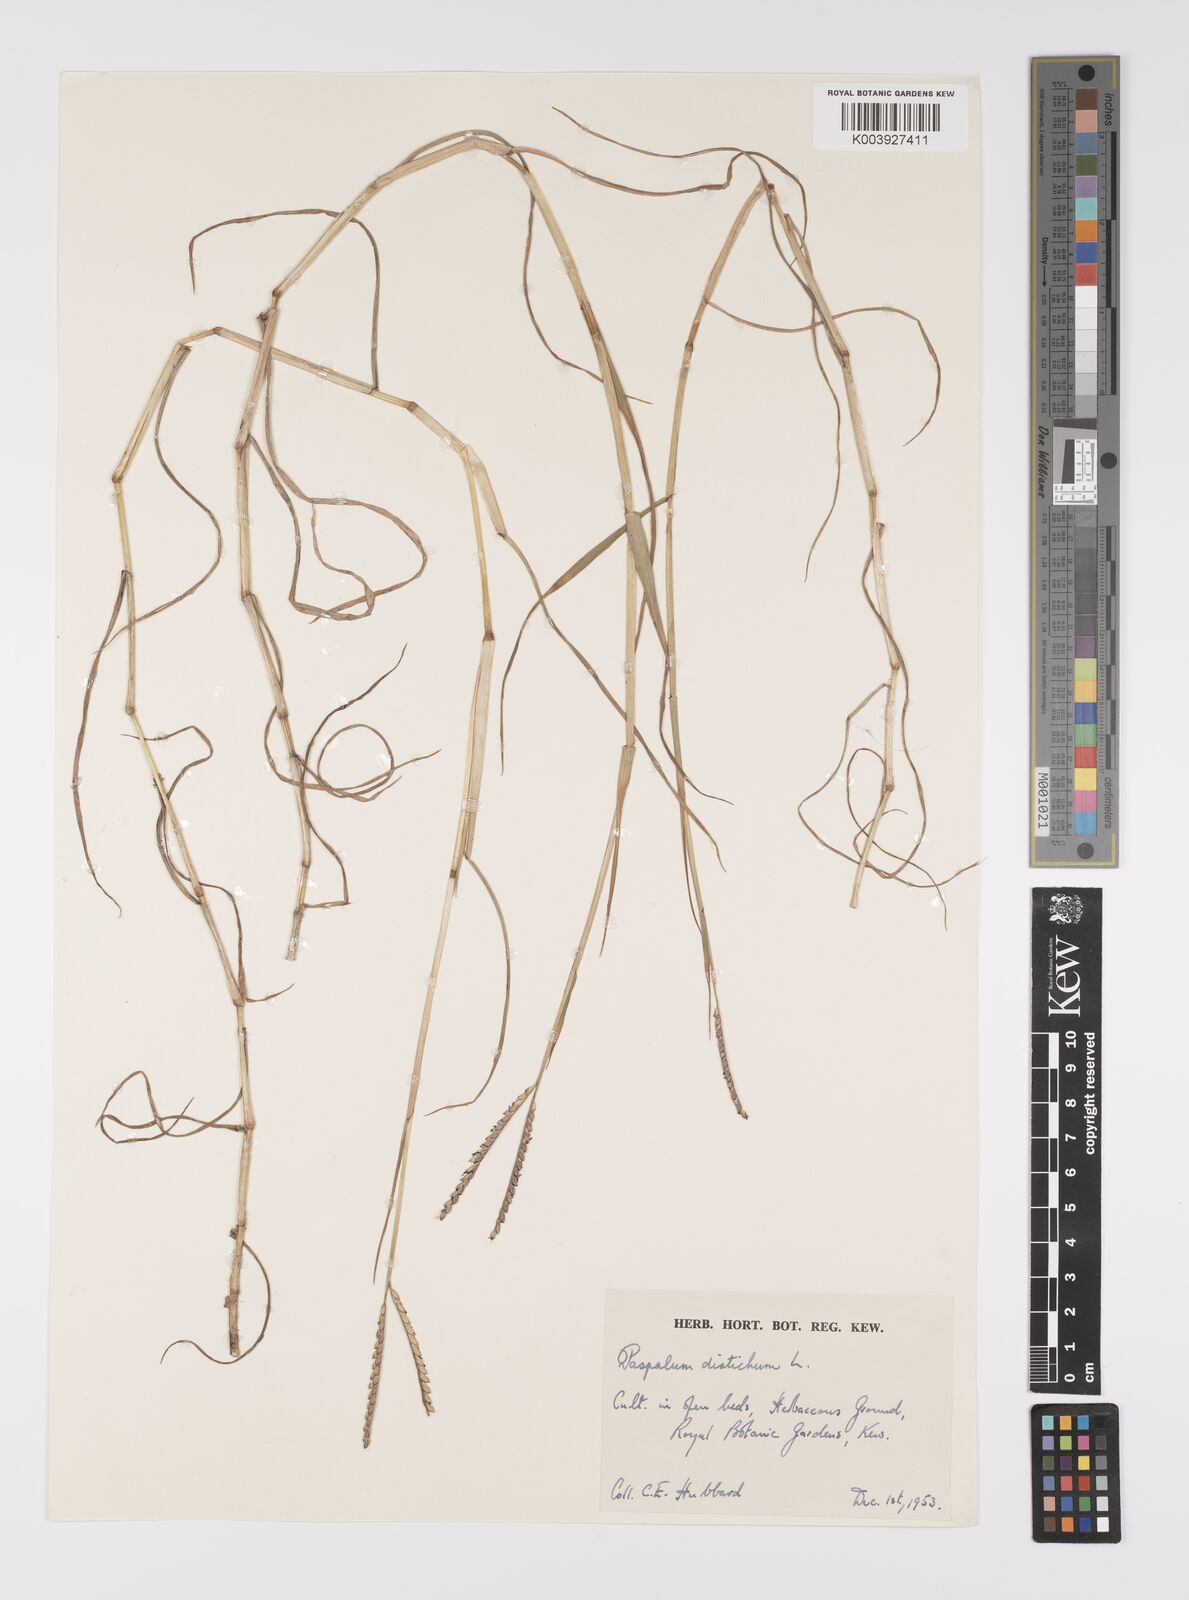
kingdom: Plantae
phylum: Tracheophyta
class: Liliopsida
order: Poales
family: Poaceae
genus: Paspalum
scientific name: Paspalum distichum
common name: Knotgrass
